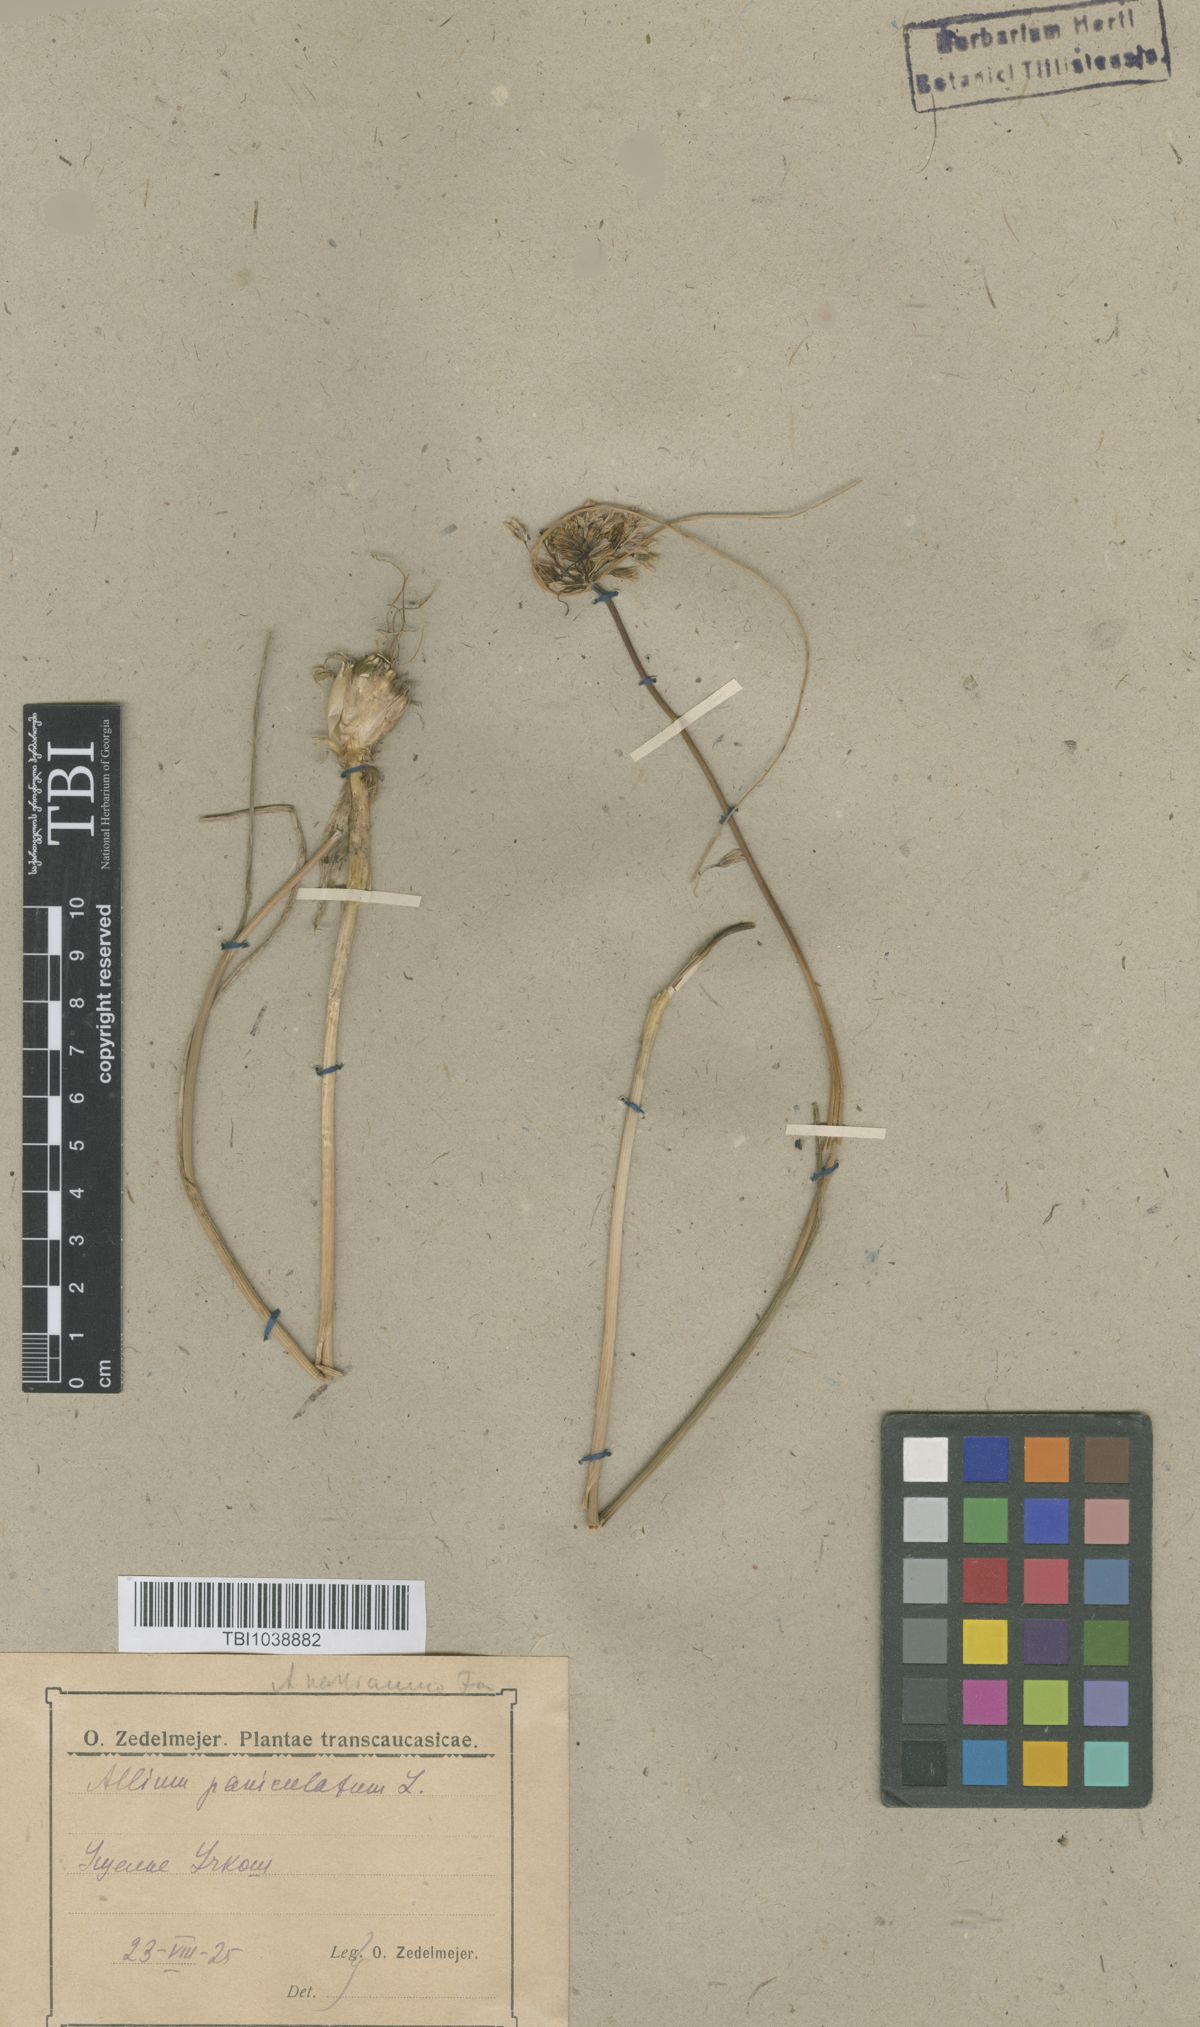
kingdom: Plantae
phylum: Tracheophyta
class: Liliopsida
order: Asparagales
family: Amaryllidaceae
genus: Allium
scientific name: Allium paniculatum
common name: Pale garlic
